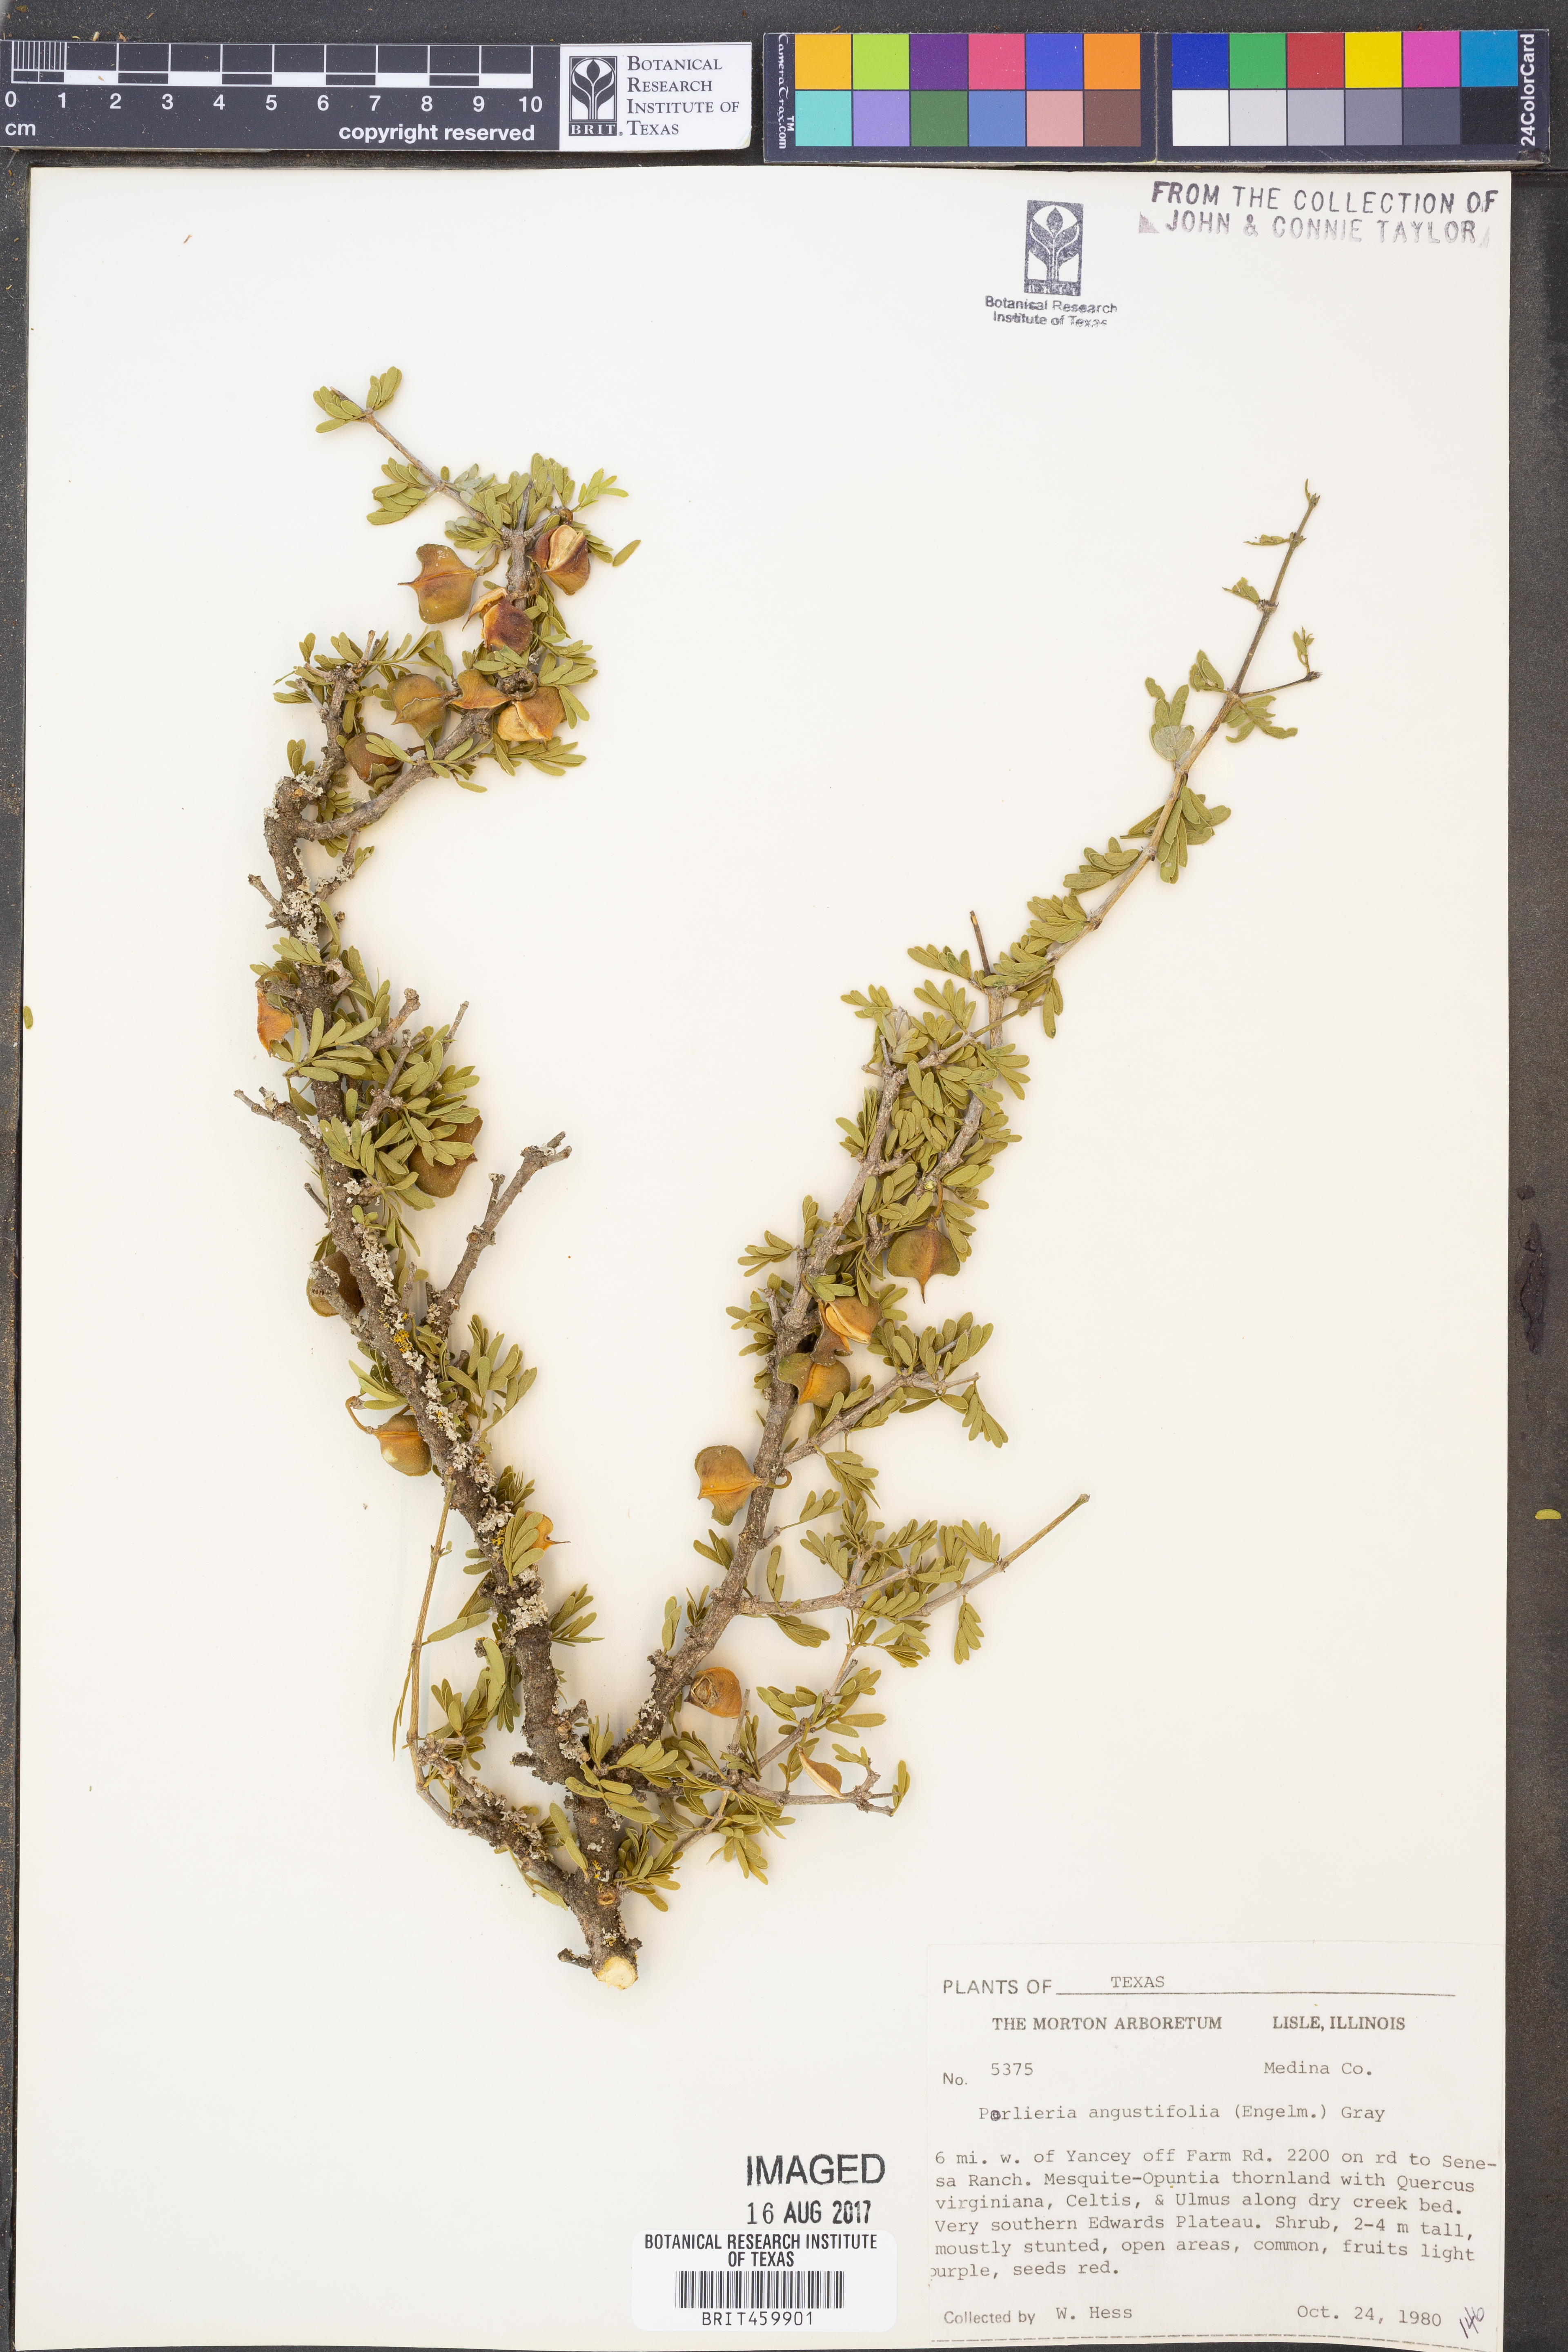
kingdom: Plantae
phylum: Tracheophyta
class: Magnoliopsida
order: Zygophyllales
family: Zygophyllaceae
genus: Porlieria
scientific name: Porlieria angustifolia
